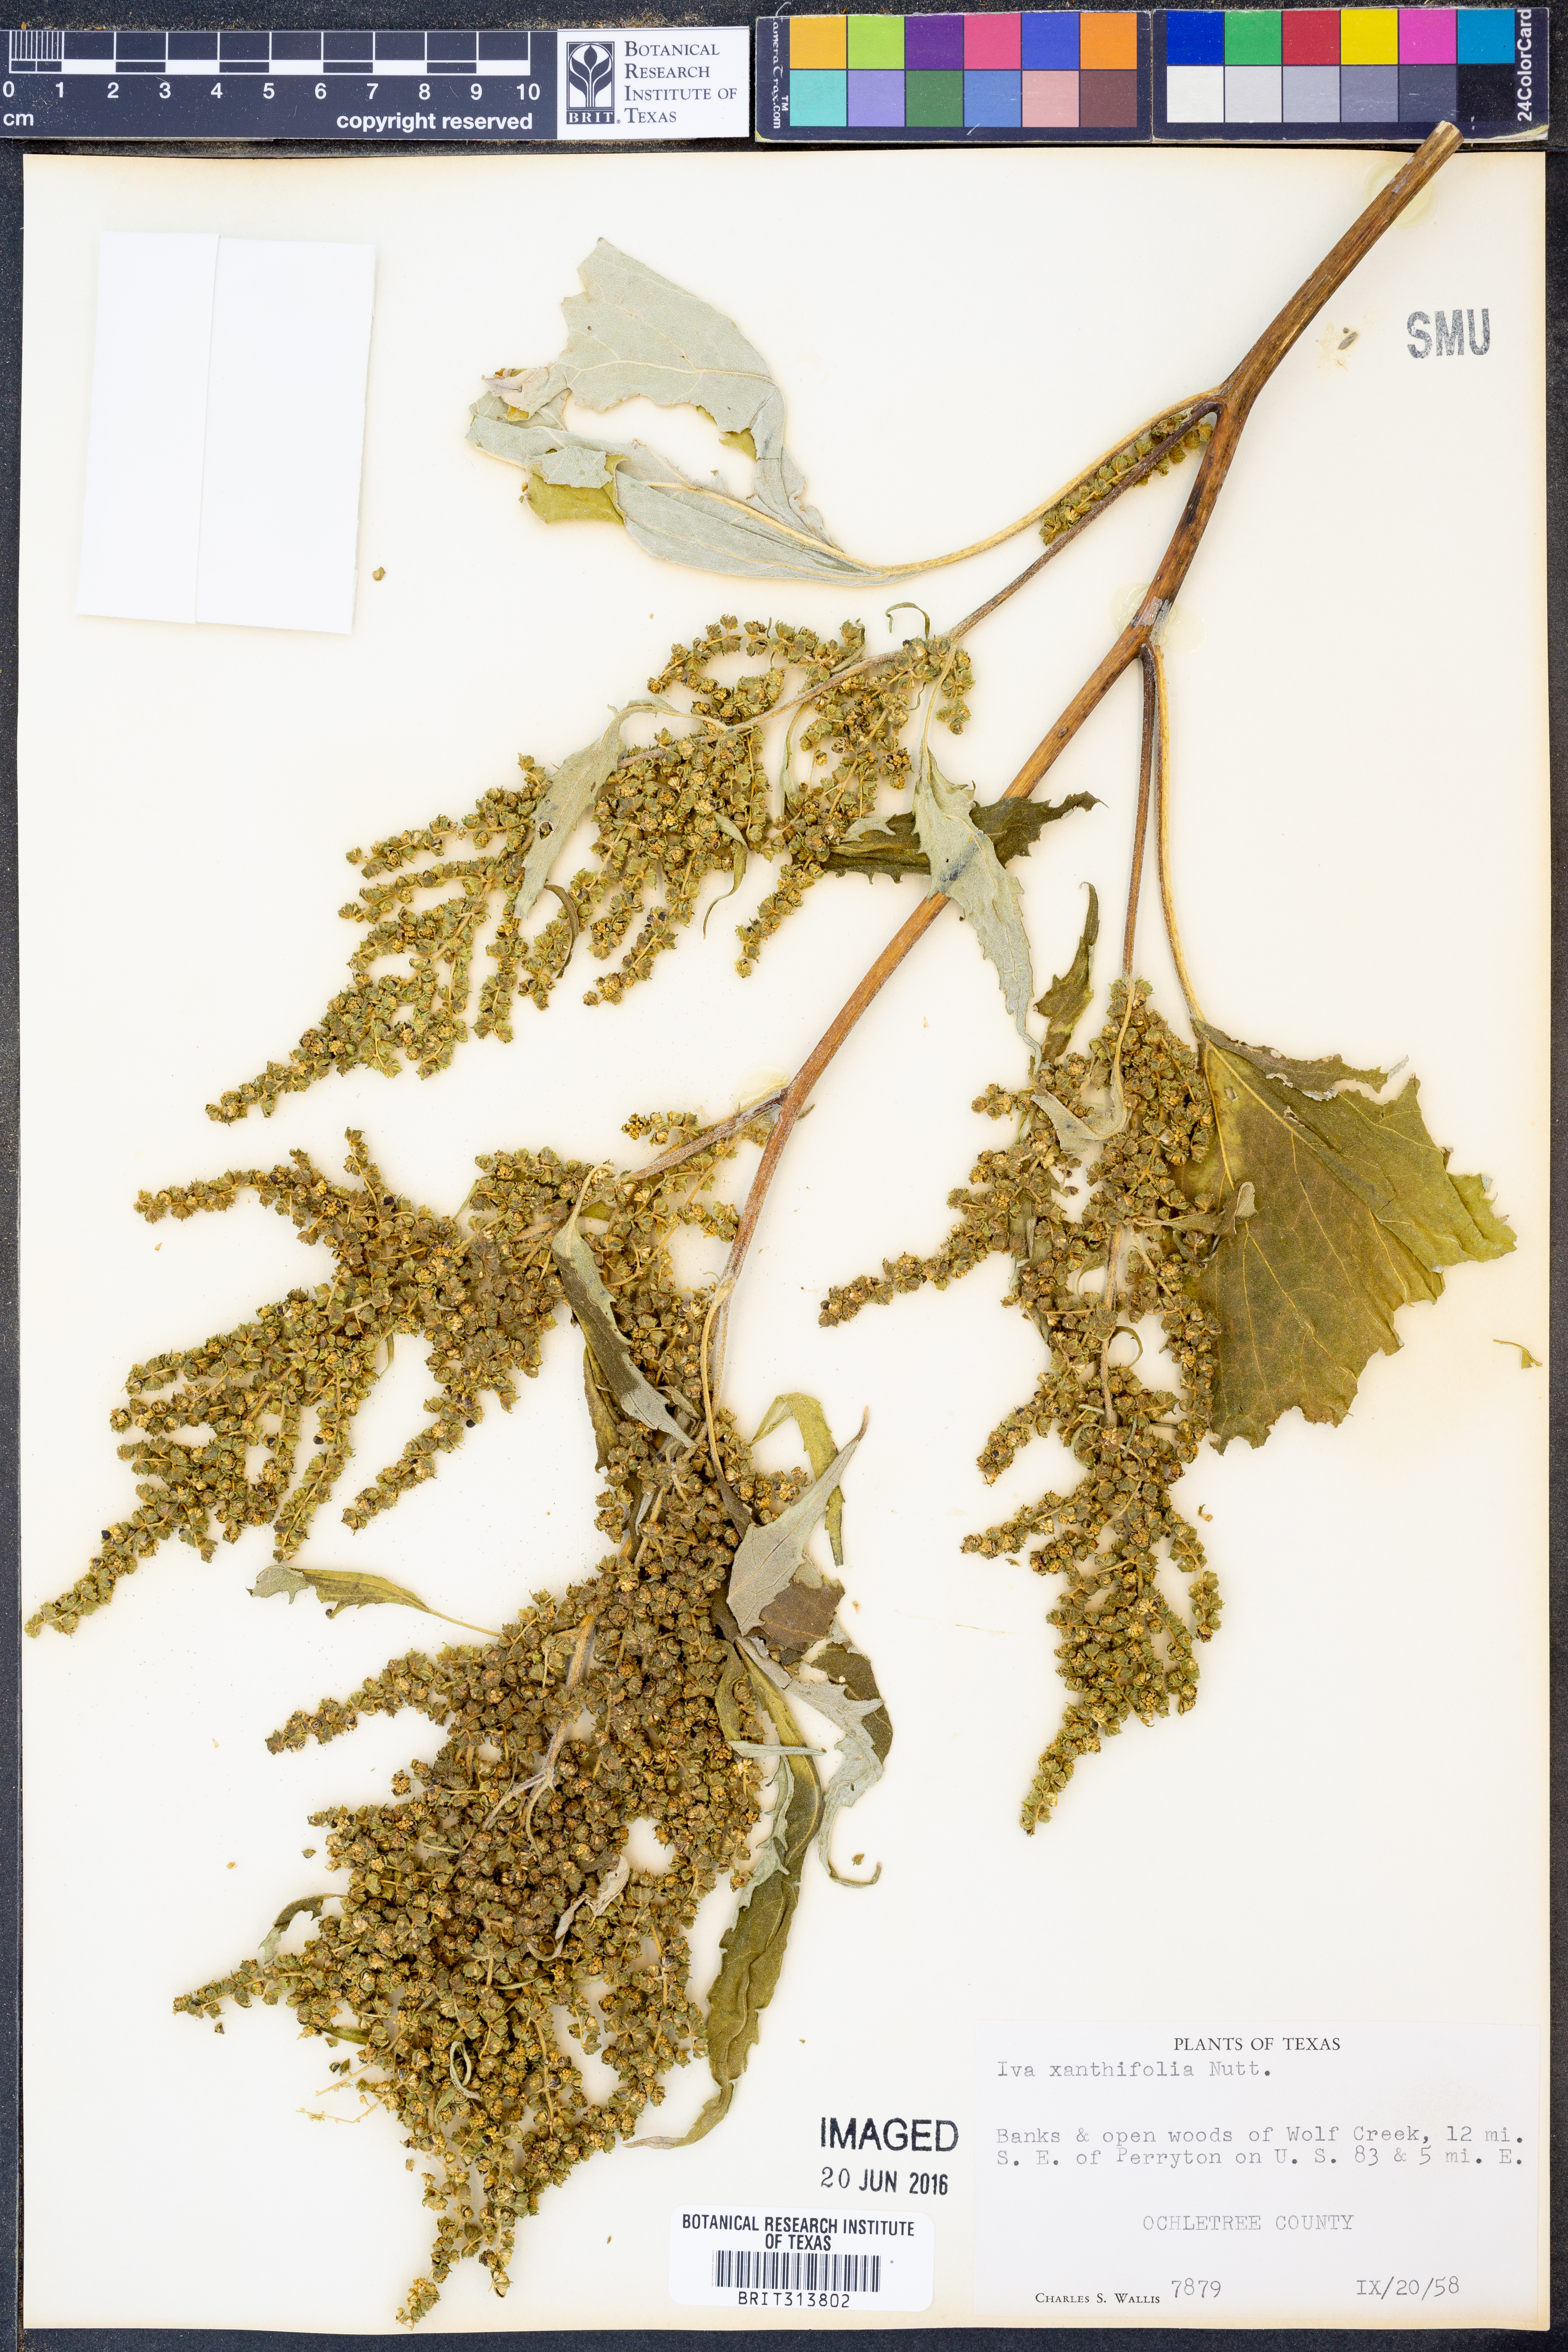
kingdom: Plantae
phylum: Tracheophyta
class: Magnoliopsida
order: Asterales
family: Asteraceae
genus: Cyclachaena
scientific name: Cyclachaena xanthiifolia
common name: Giant sumpweed
